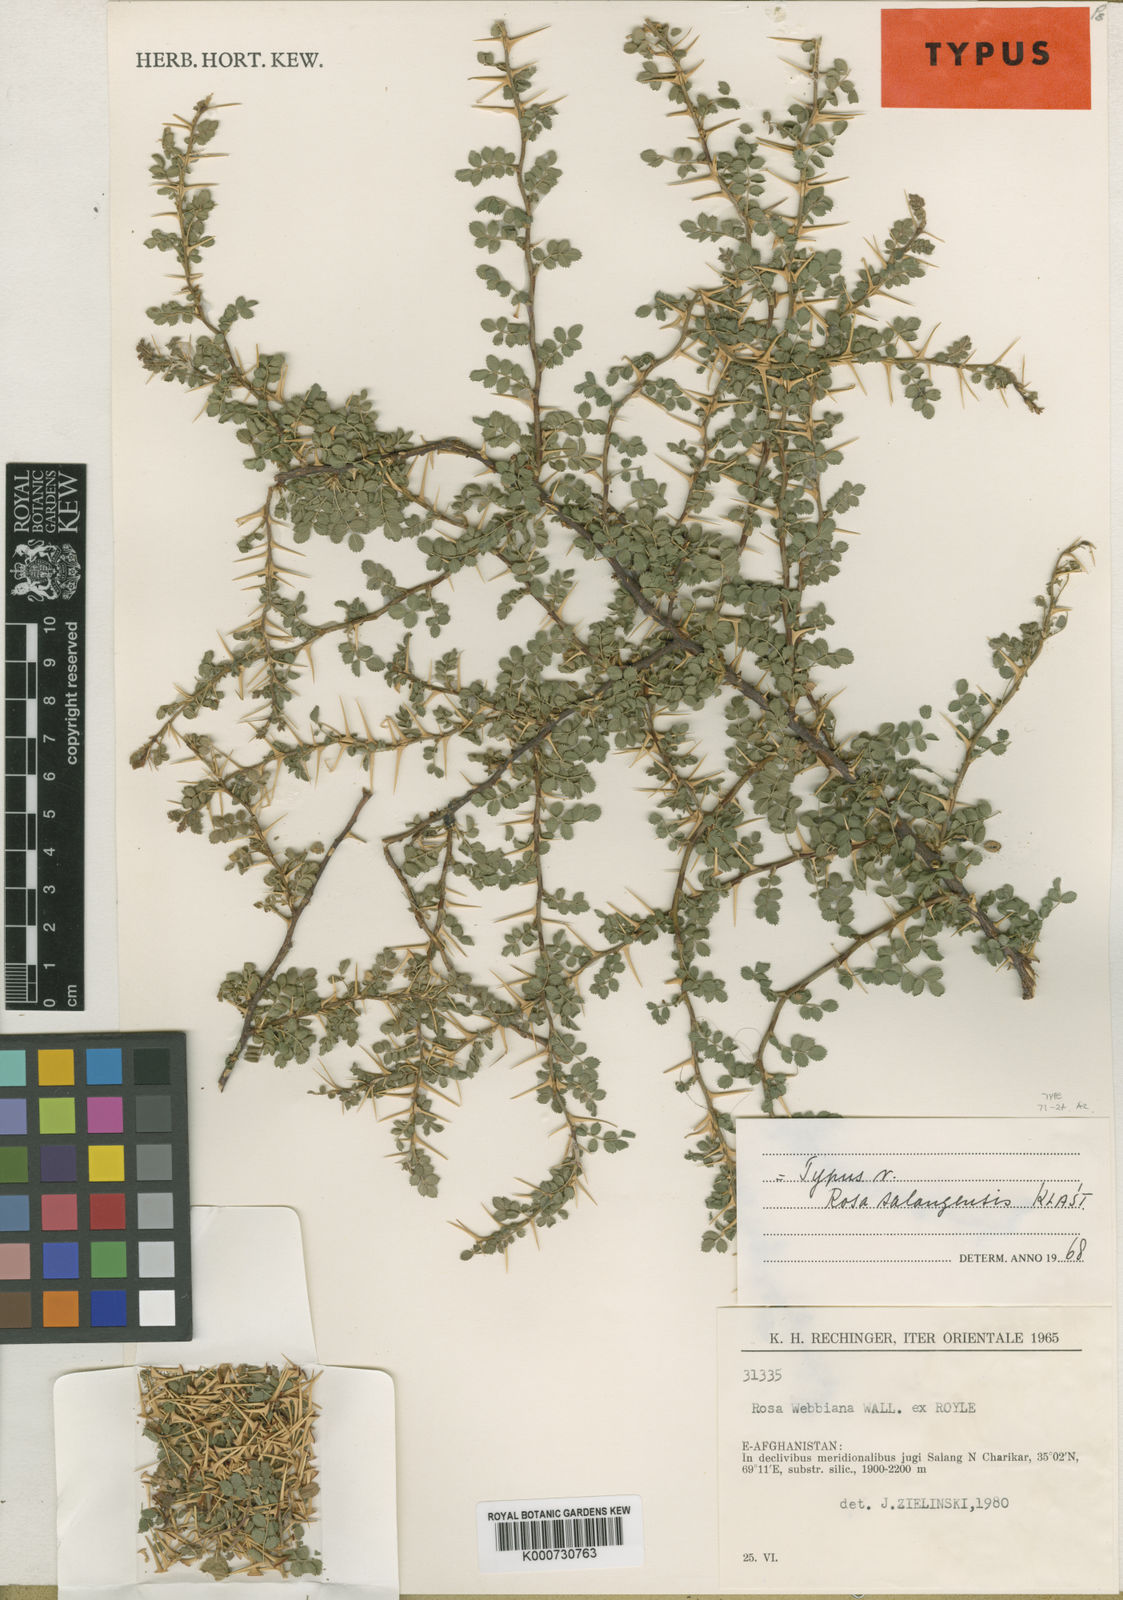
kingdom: Plantae
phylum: Tracheophyta
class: Magnoliopsida
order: Rosales
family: Rosaceae
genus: Rosa
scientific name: Rosa
